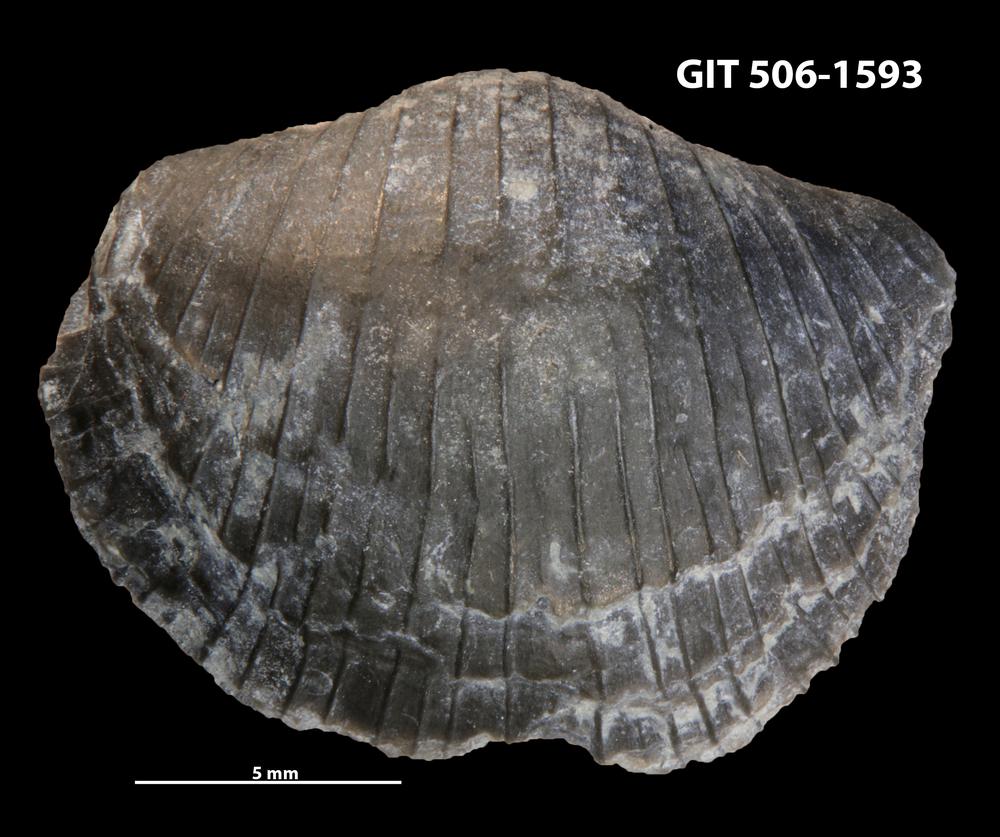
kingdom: Animalia
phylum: Brachiopoda
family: Sowerbyellidae
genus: Ygerodiscus
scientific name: Ygerodiscus Eoplectodonta bella
